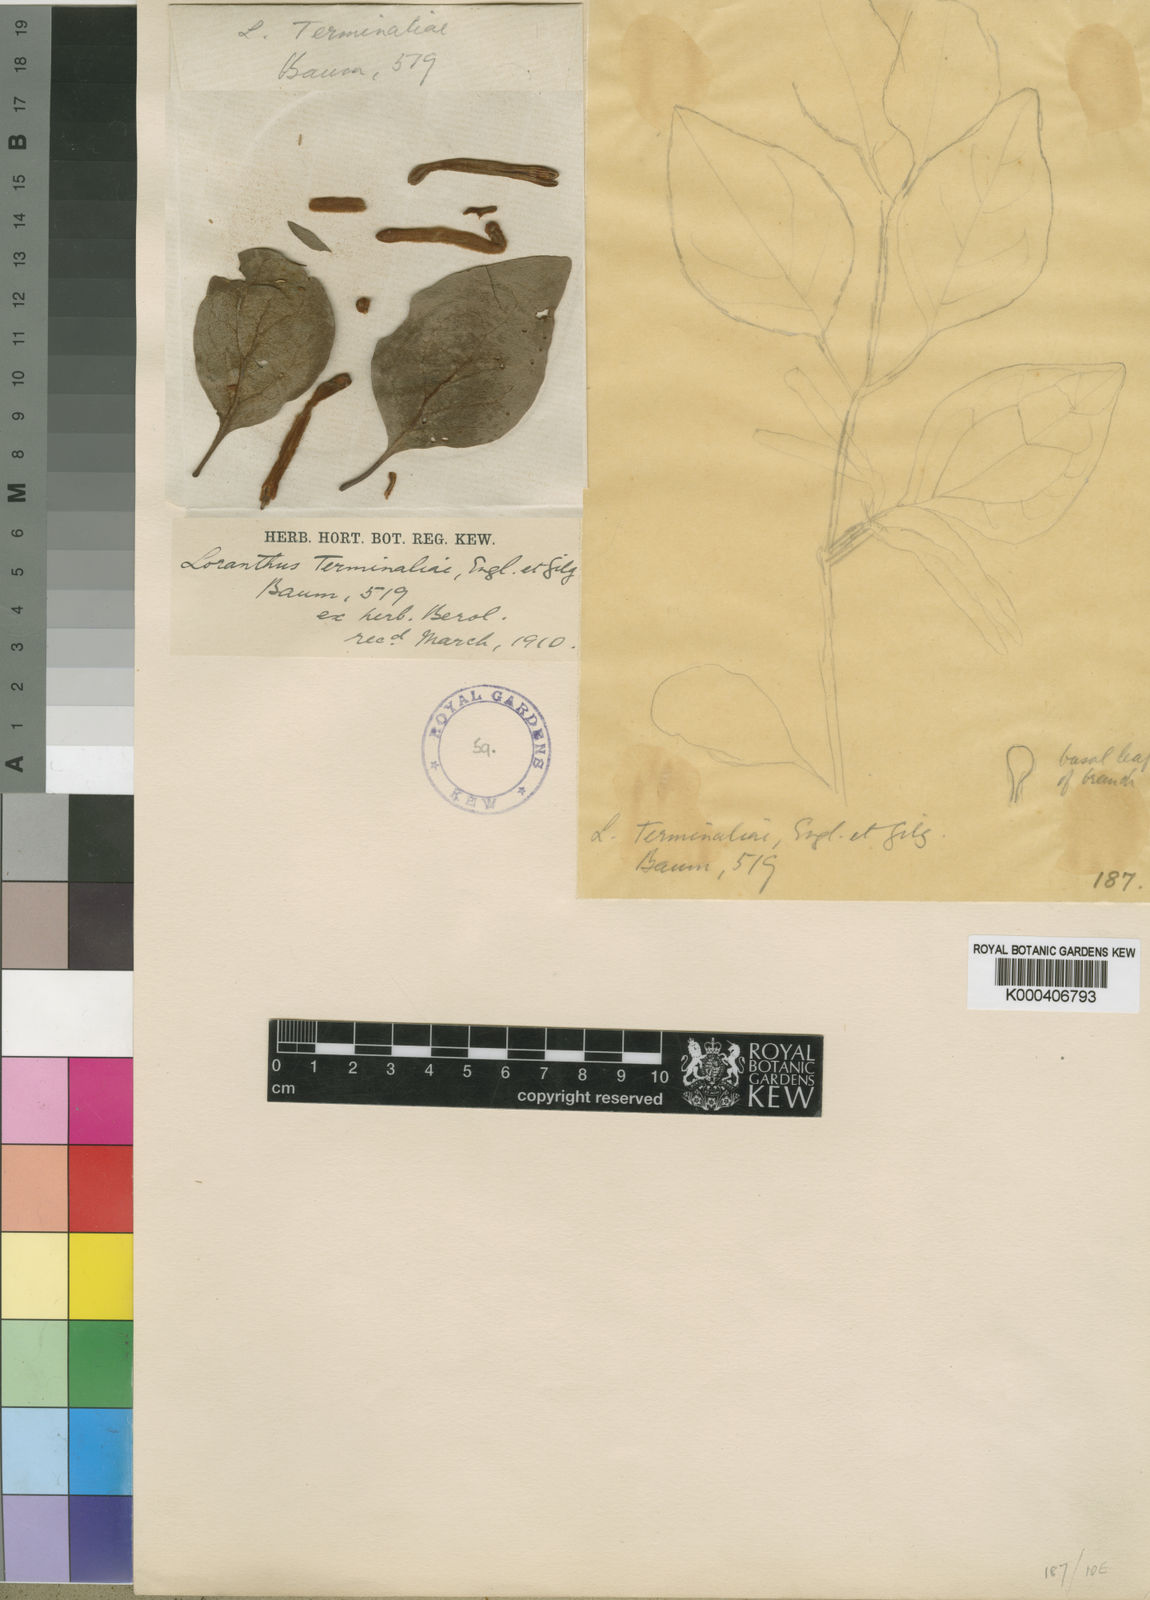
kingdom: Plantae
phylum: Tracheophyta
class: Magnoliopsida
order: Santalales
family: Loranthaceae
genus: Agelanthus
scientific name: Agelanthus terminaliae
